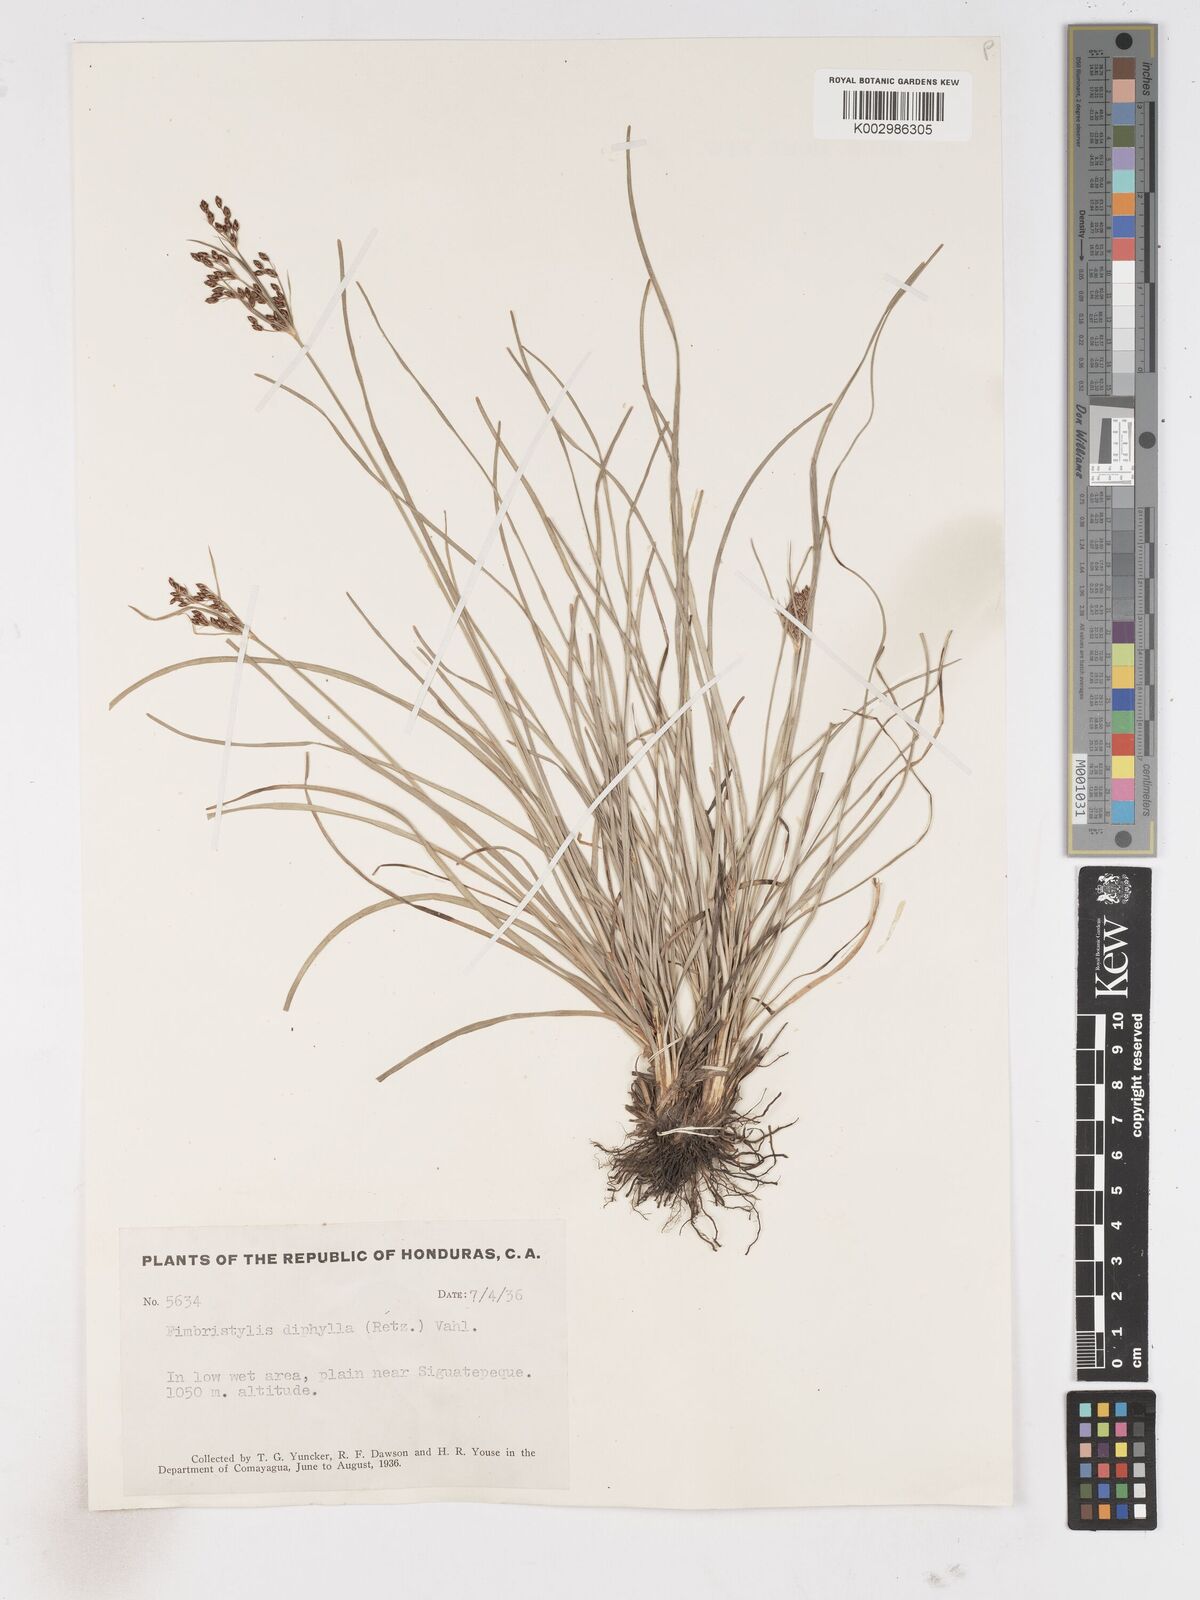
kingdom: Plantae
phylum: Tracheophyta
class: Liliopsida
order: Poales
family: Cyperaceae
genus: Fimbristylis
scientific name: Fimbristylis dichotoma
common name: Forked fimbry
